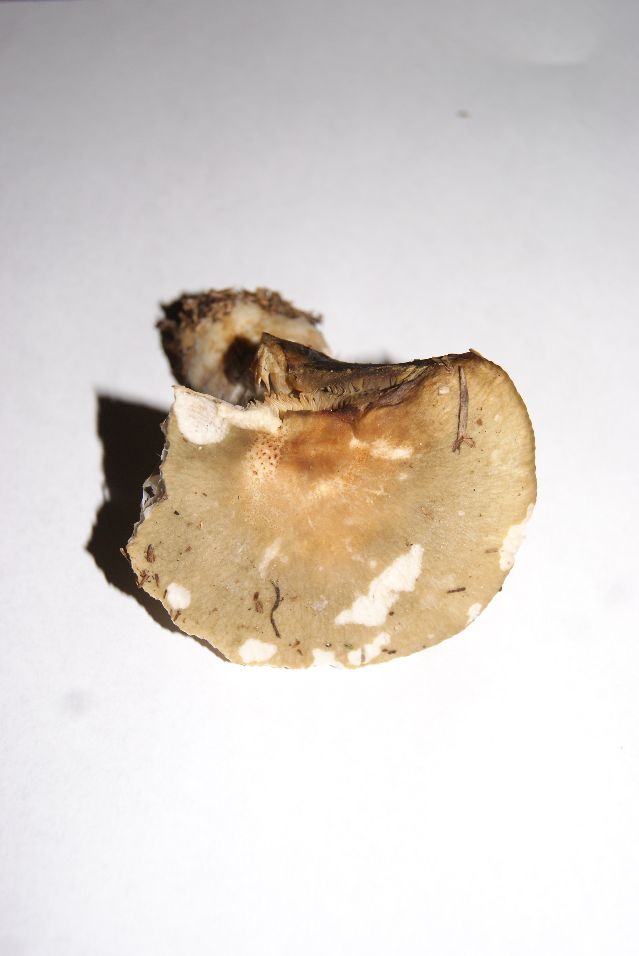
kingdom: Fungi
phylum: Basidiomycota
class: Agaricomycetes
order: Russulales
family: Russulaceae
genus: Russula
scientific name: Russula ochroleuca
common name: okkergul skørhat
